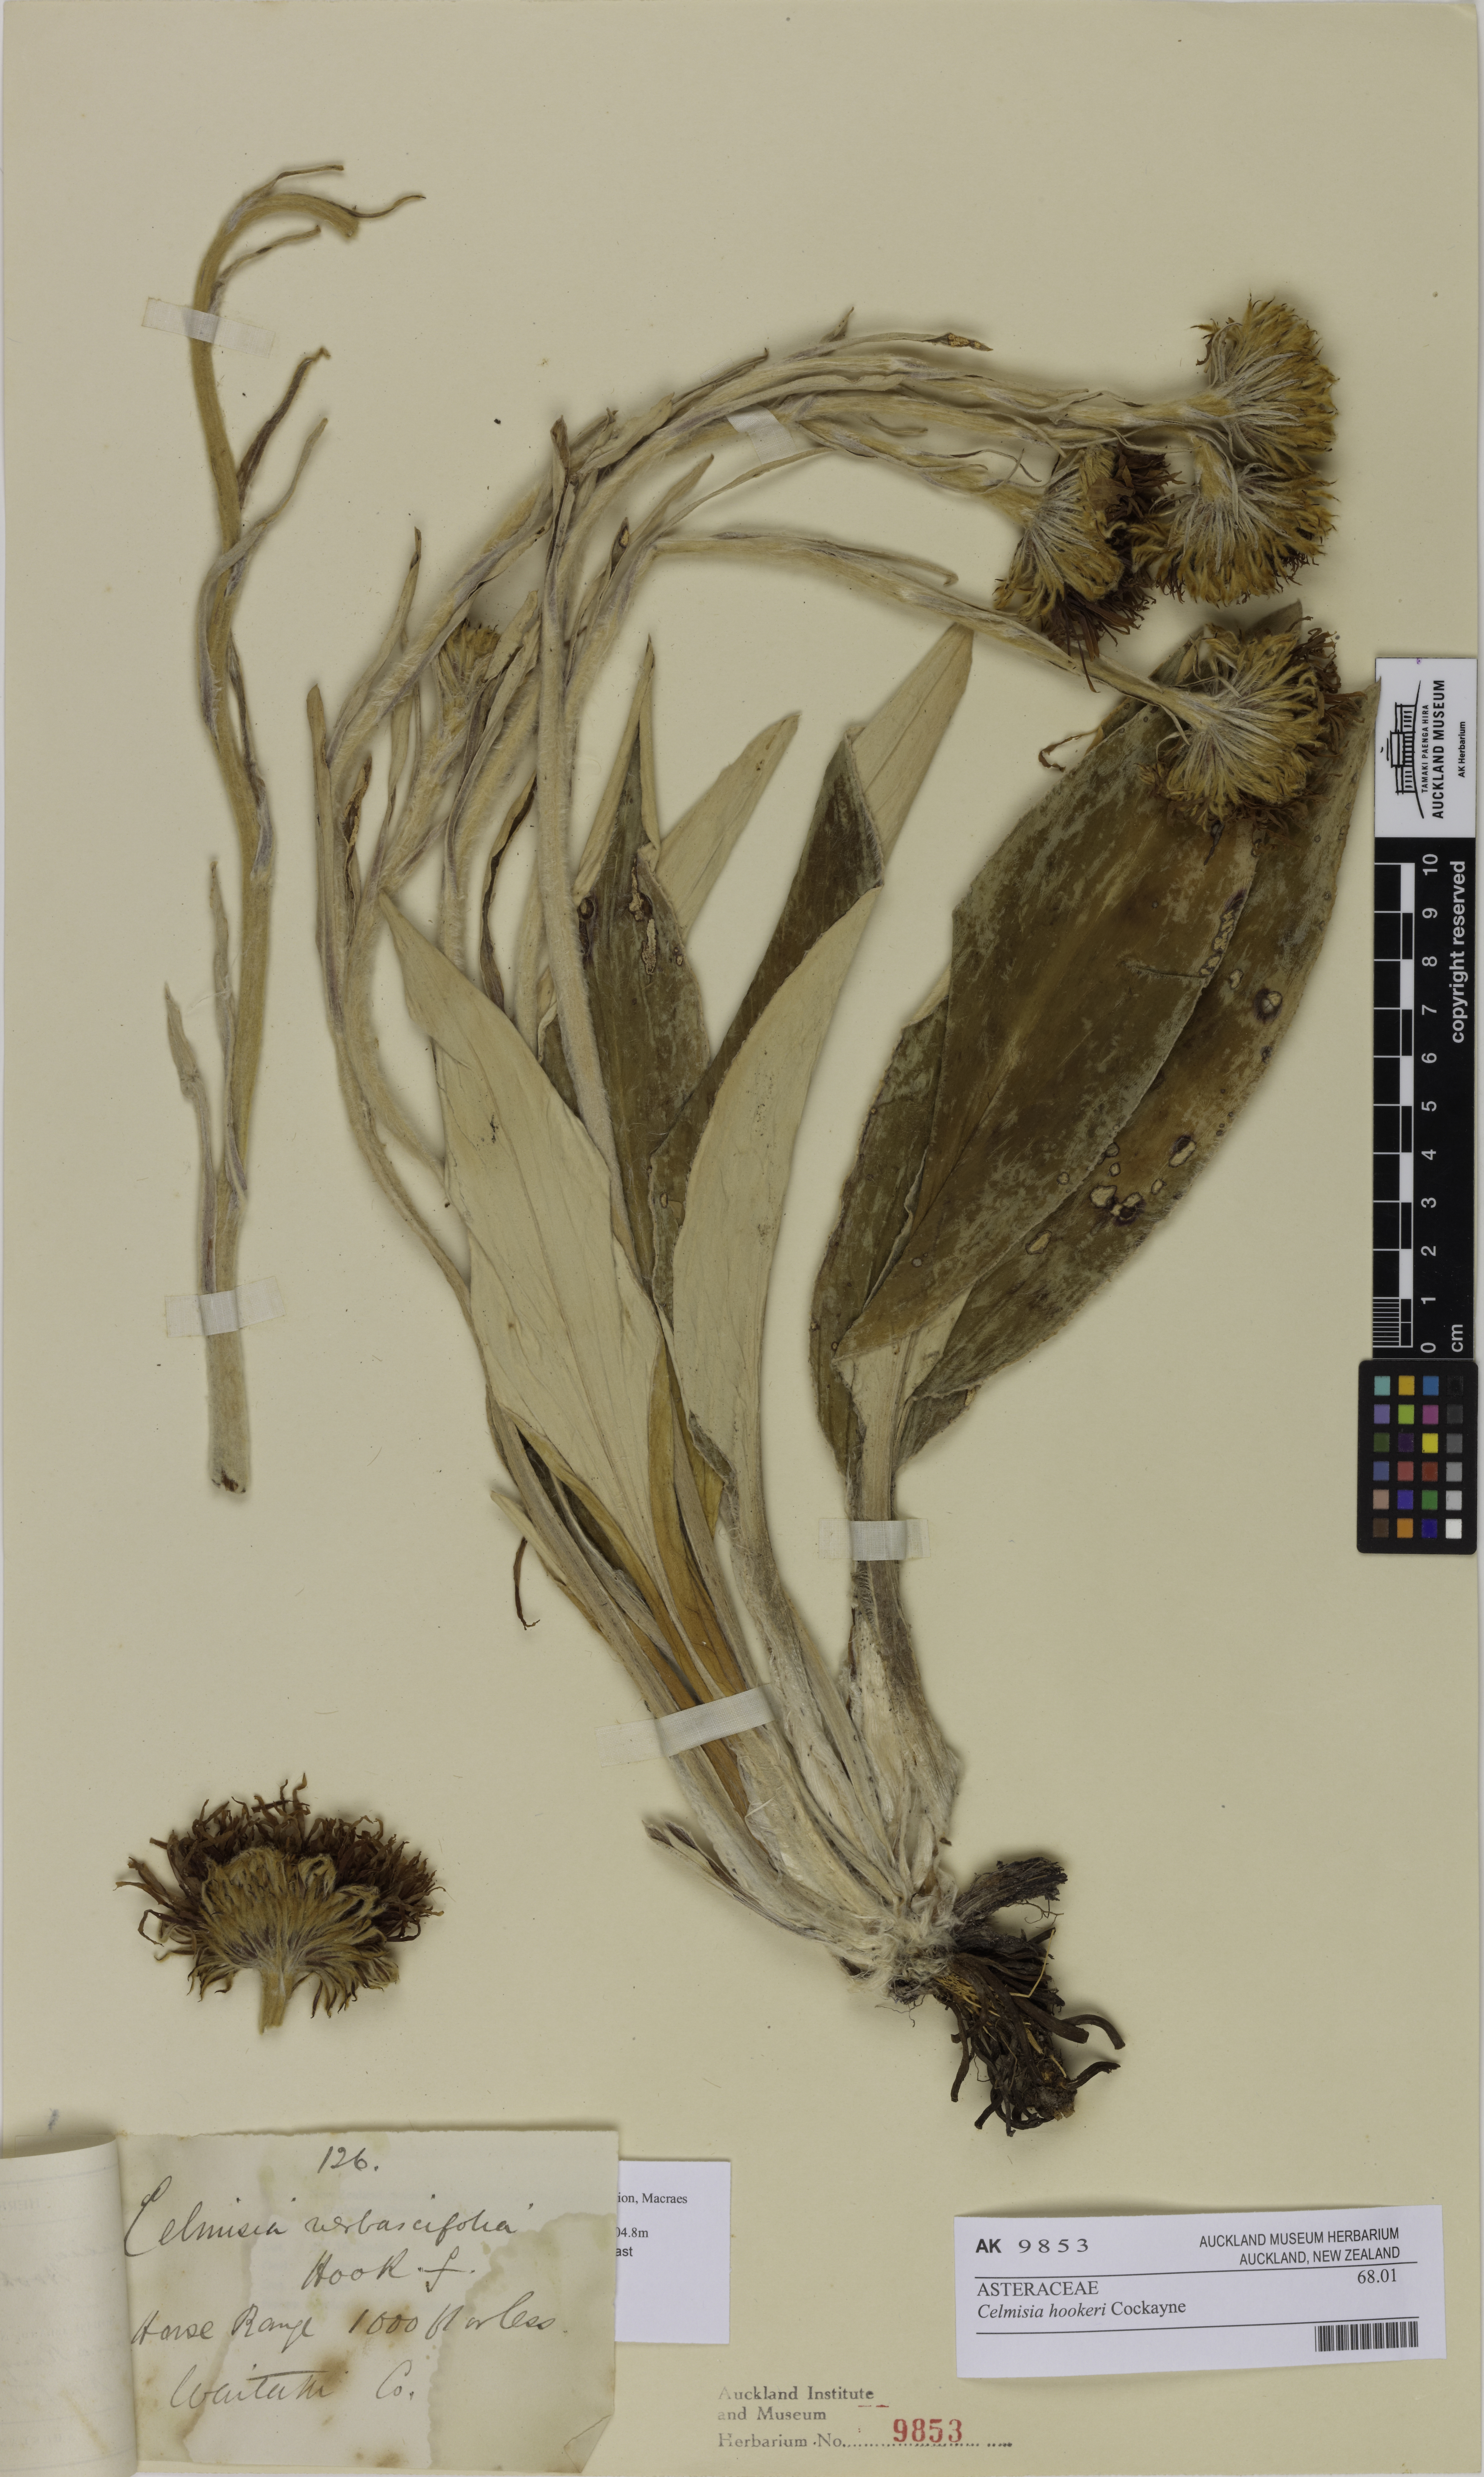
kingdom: Plantae
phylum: Tracheophyta
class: Magnoliopsida
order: Asterales
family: Asteraceae
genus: Celmisia
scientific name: Celmisia hookeri
